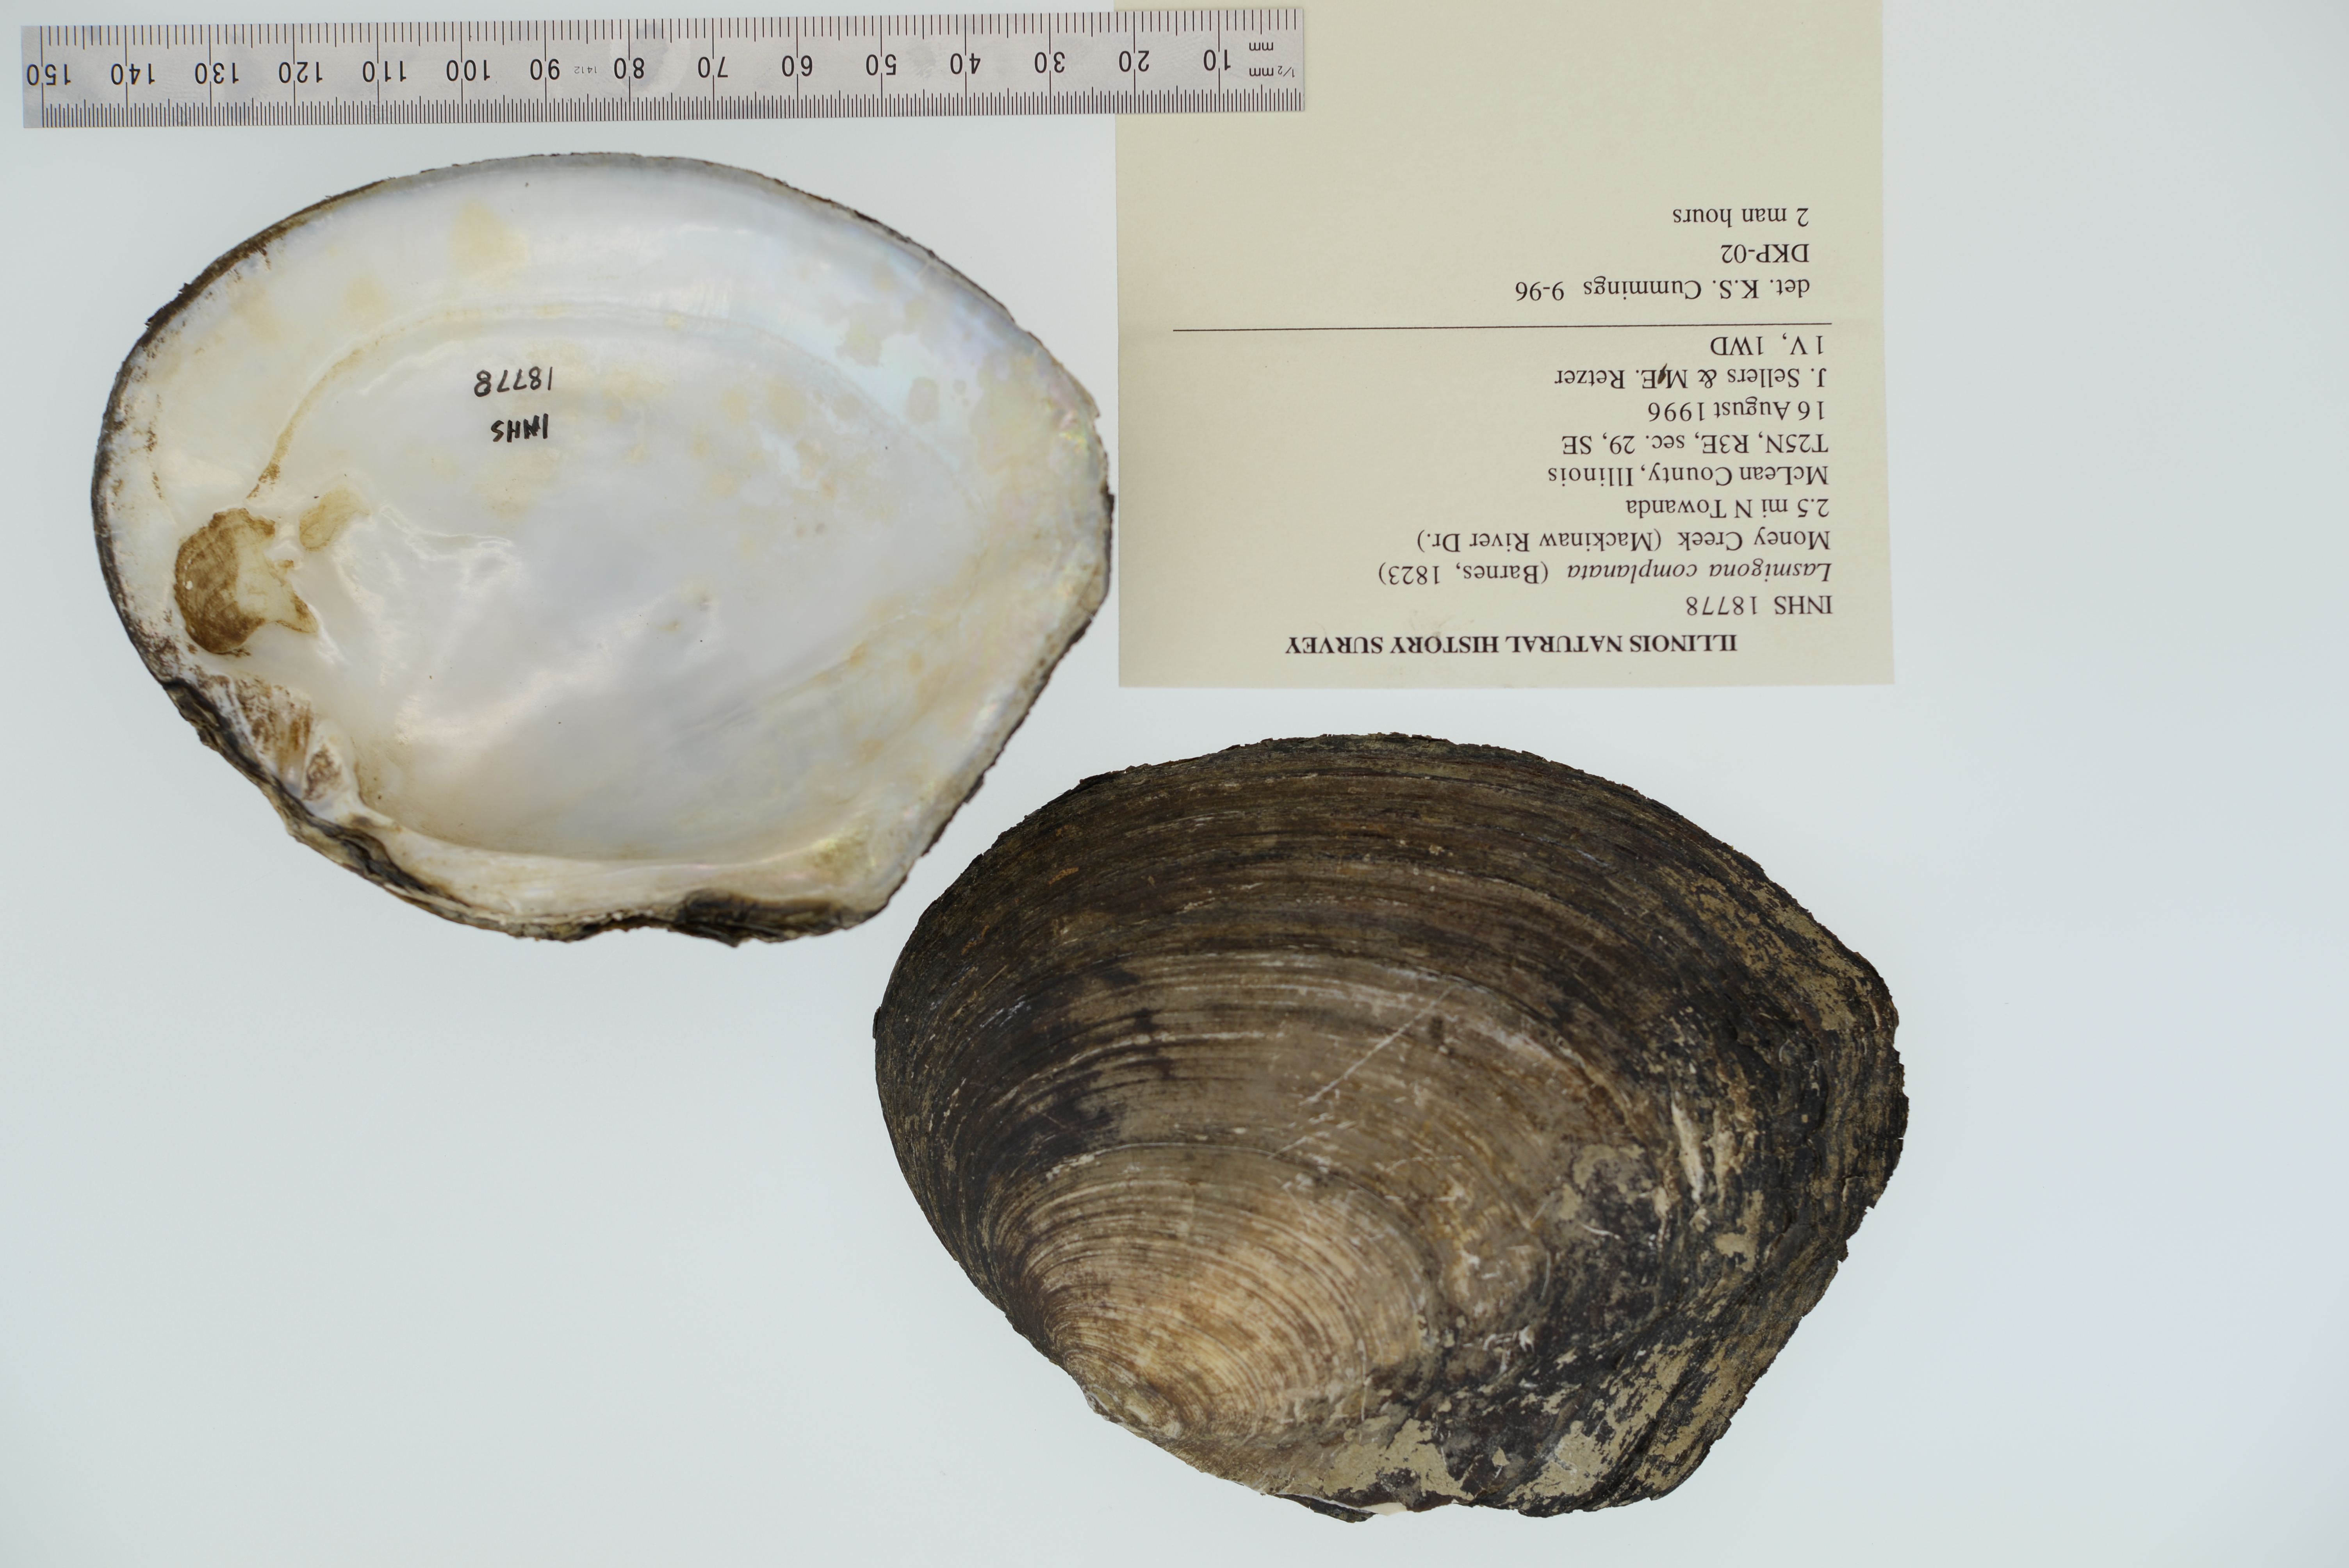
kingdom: Animalia
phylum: Mollusca
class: Bivalvia
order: Unionida
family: Unionidae
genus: Lasmigona
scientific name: Lasmigona complanata
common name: White heelsplitter
